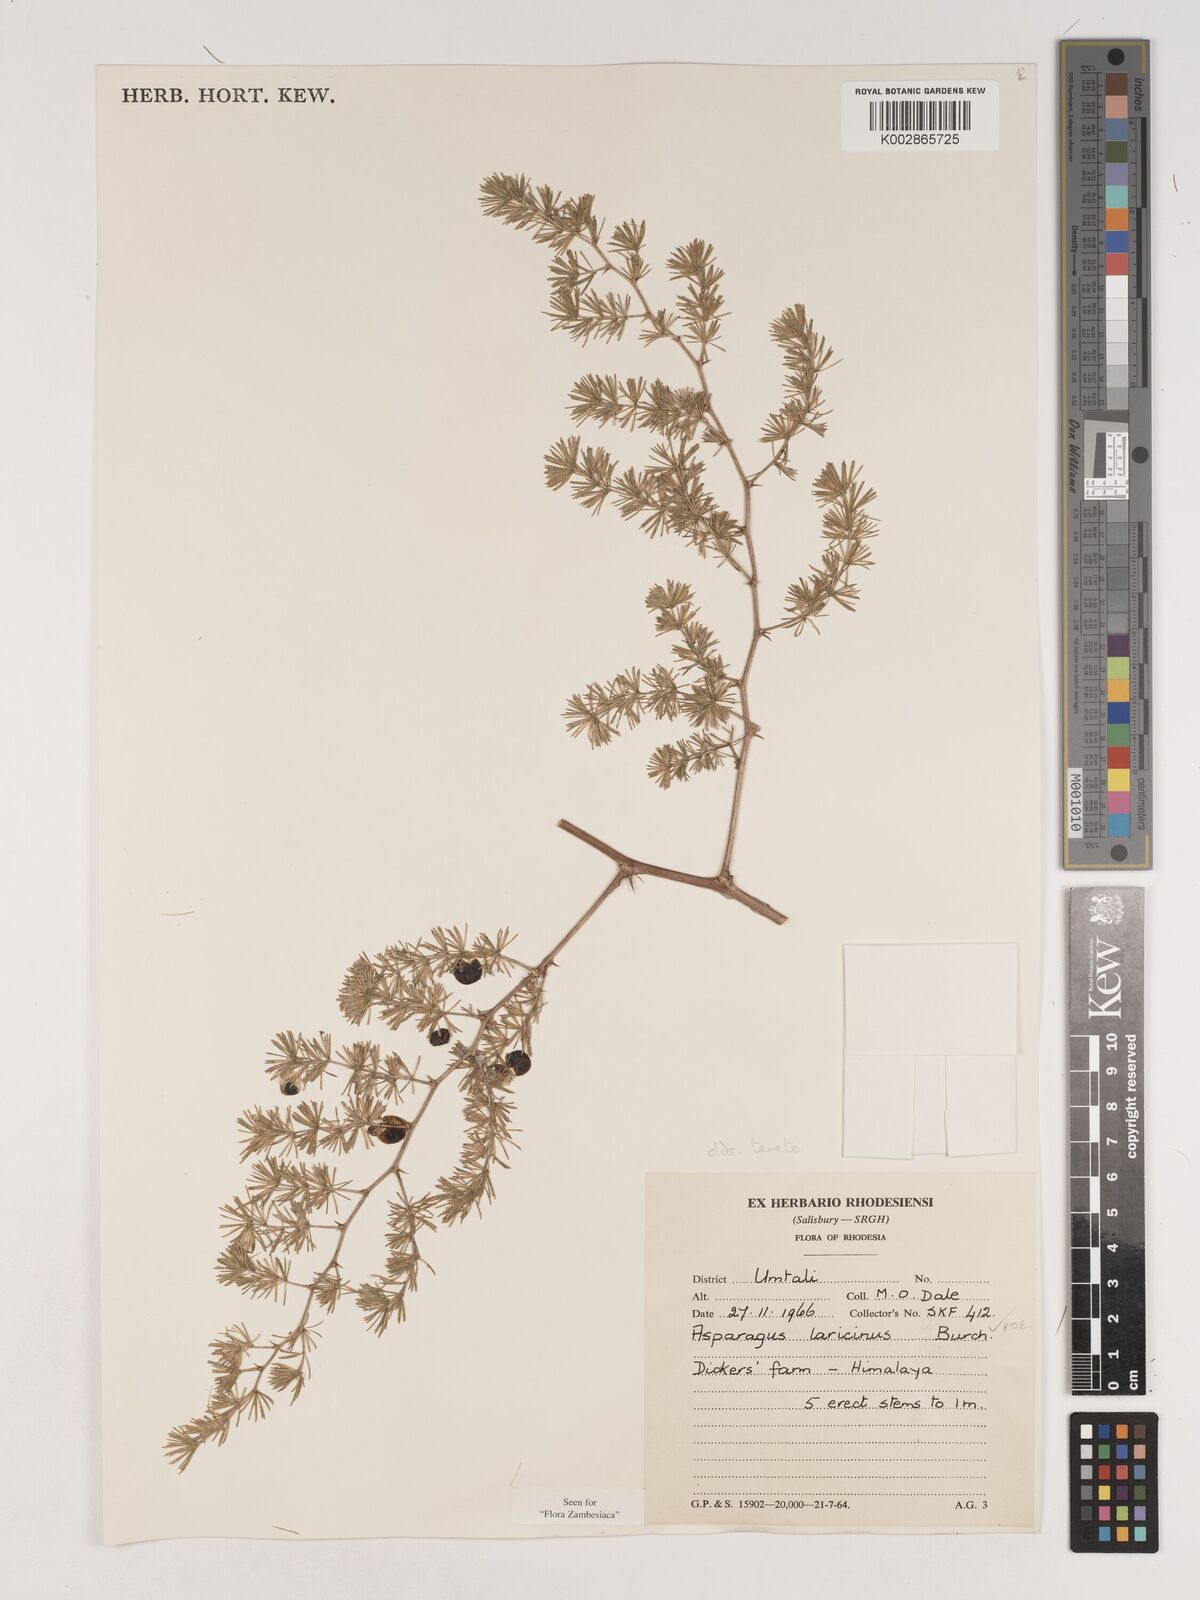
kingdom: Plantae
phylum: Tracheophyta
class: Liliopsida
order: Asparagales
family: Asparagaceae
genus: Asparagus
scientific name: Asparagus laricinus
